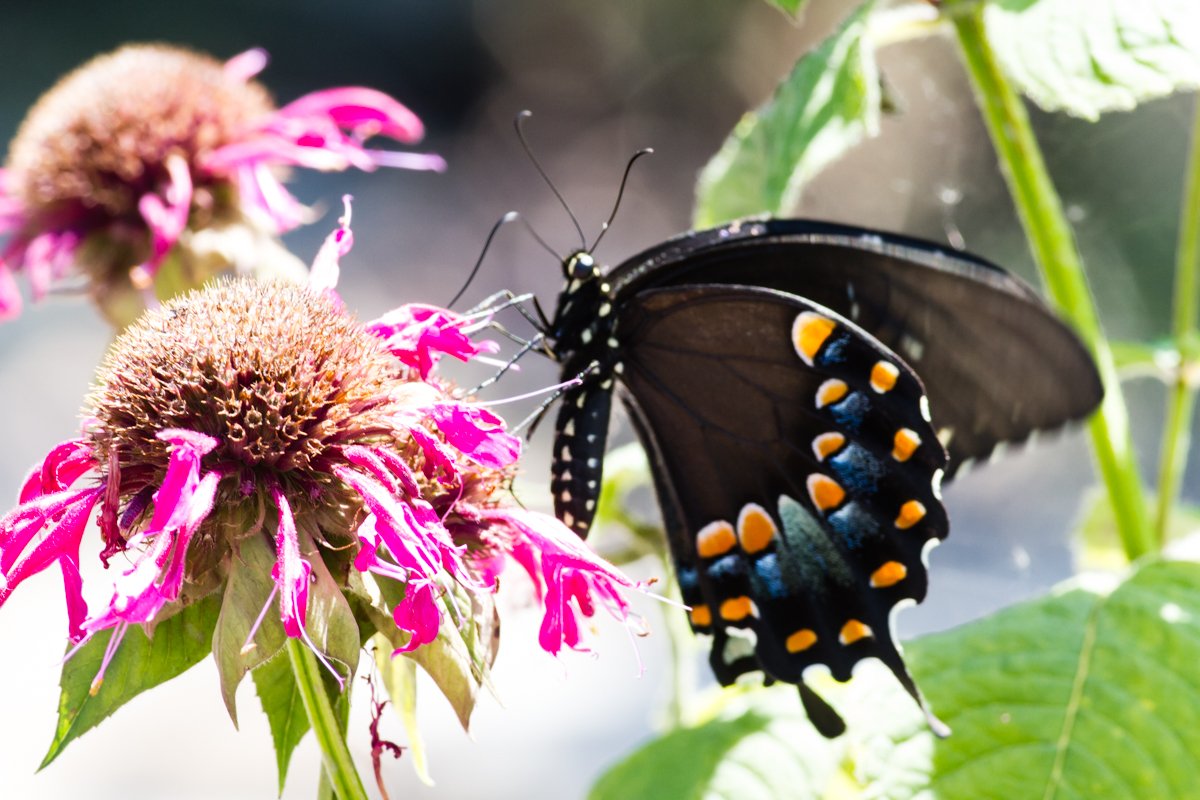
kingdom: Animalia
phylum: Arthropoda
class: Insecta
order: Lepidoptera
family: Papilionidae
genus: Pterourus
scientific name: Pterourus troilus
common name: Spicebush Swallowtail
